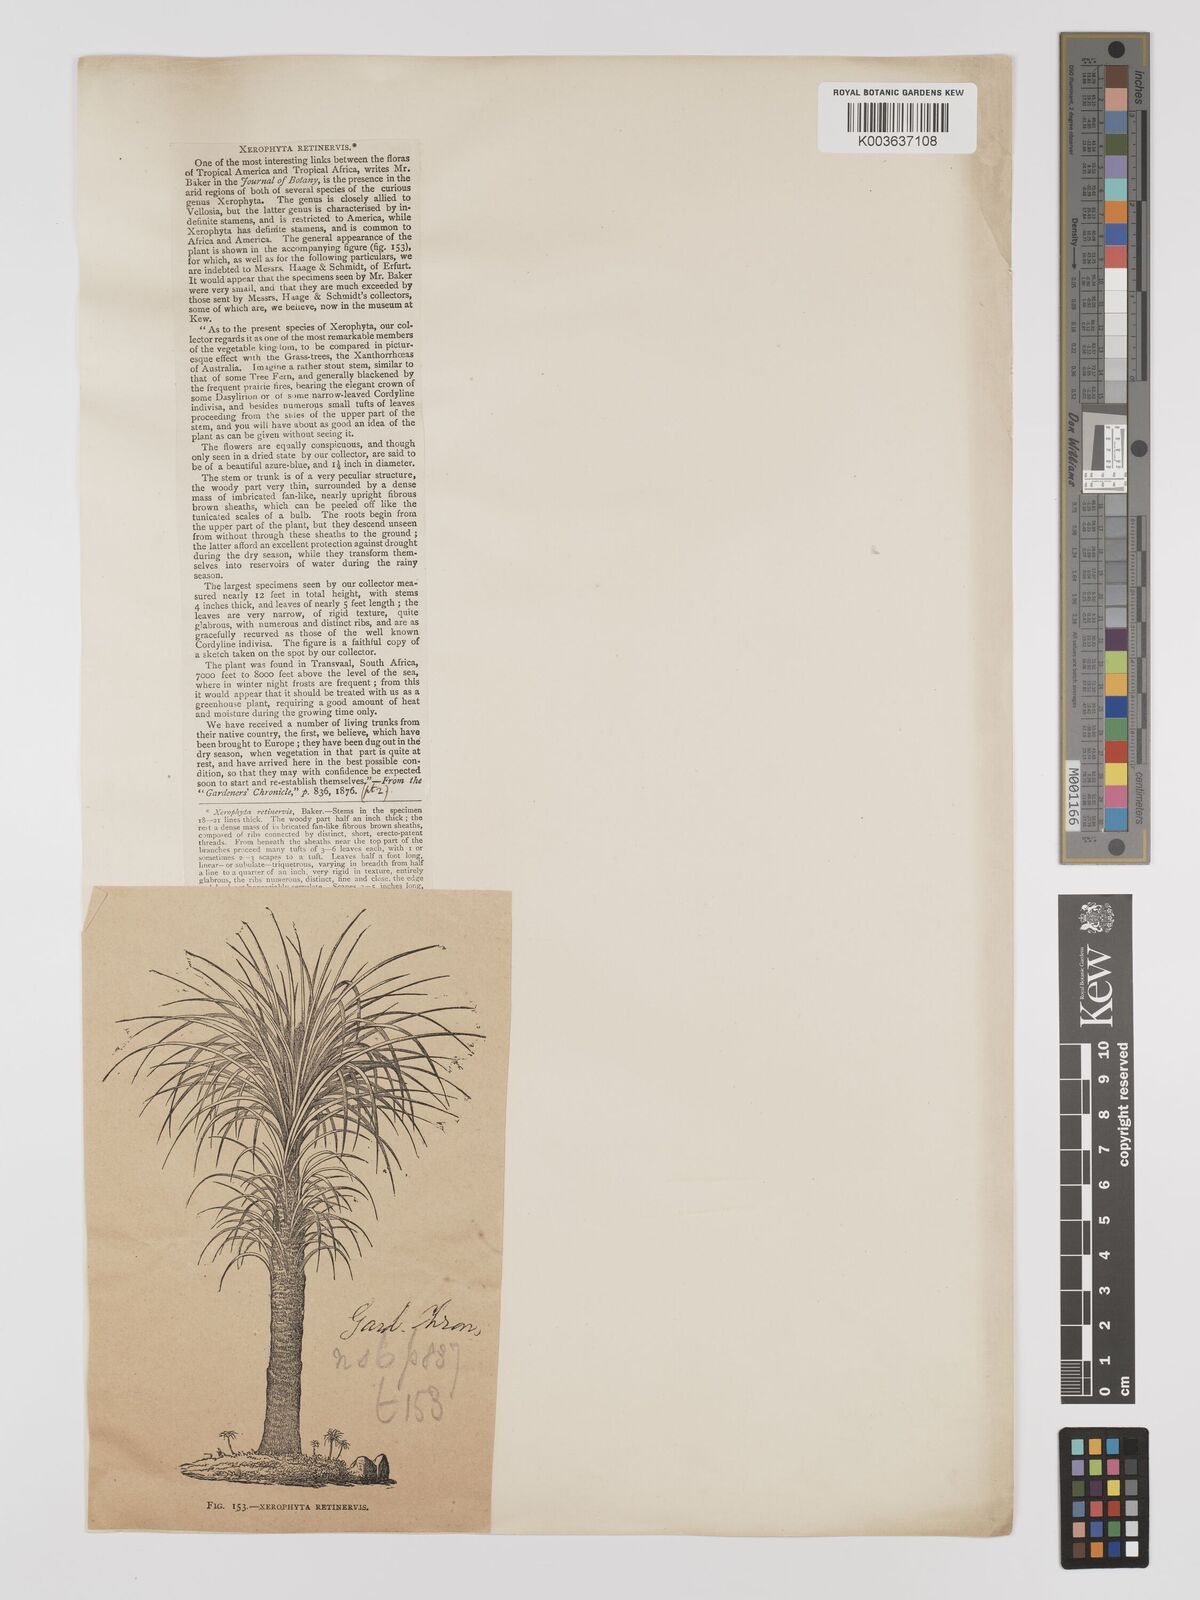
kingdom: Plantae
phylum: Tracheophyta
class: Liliopsida
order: Pandanales
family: Velloziaceae
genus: Xerophyta
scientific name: Xerophyta retinervis
